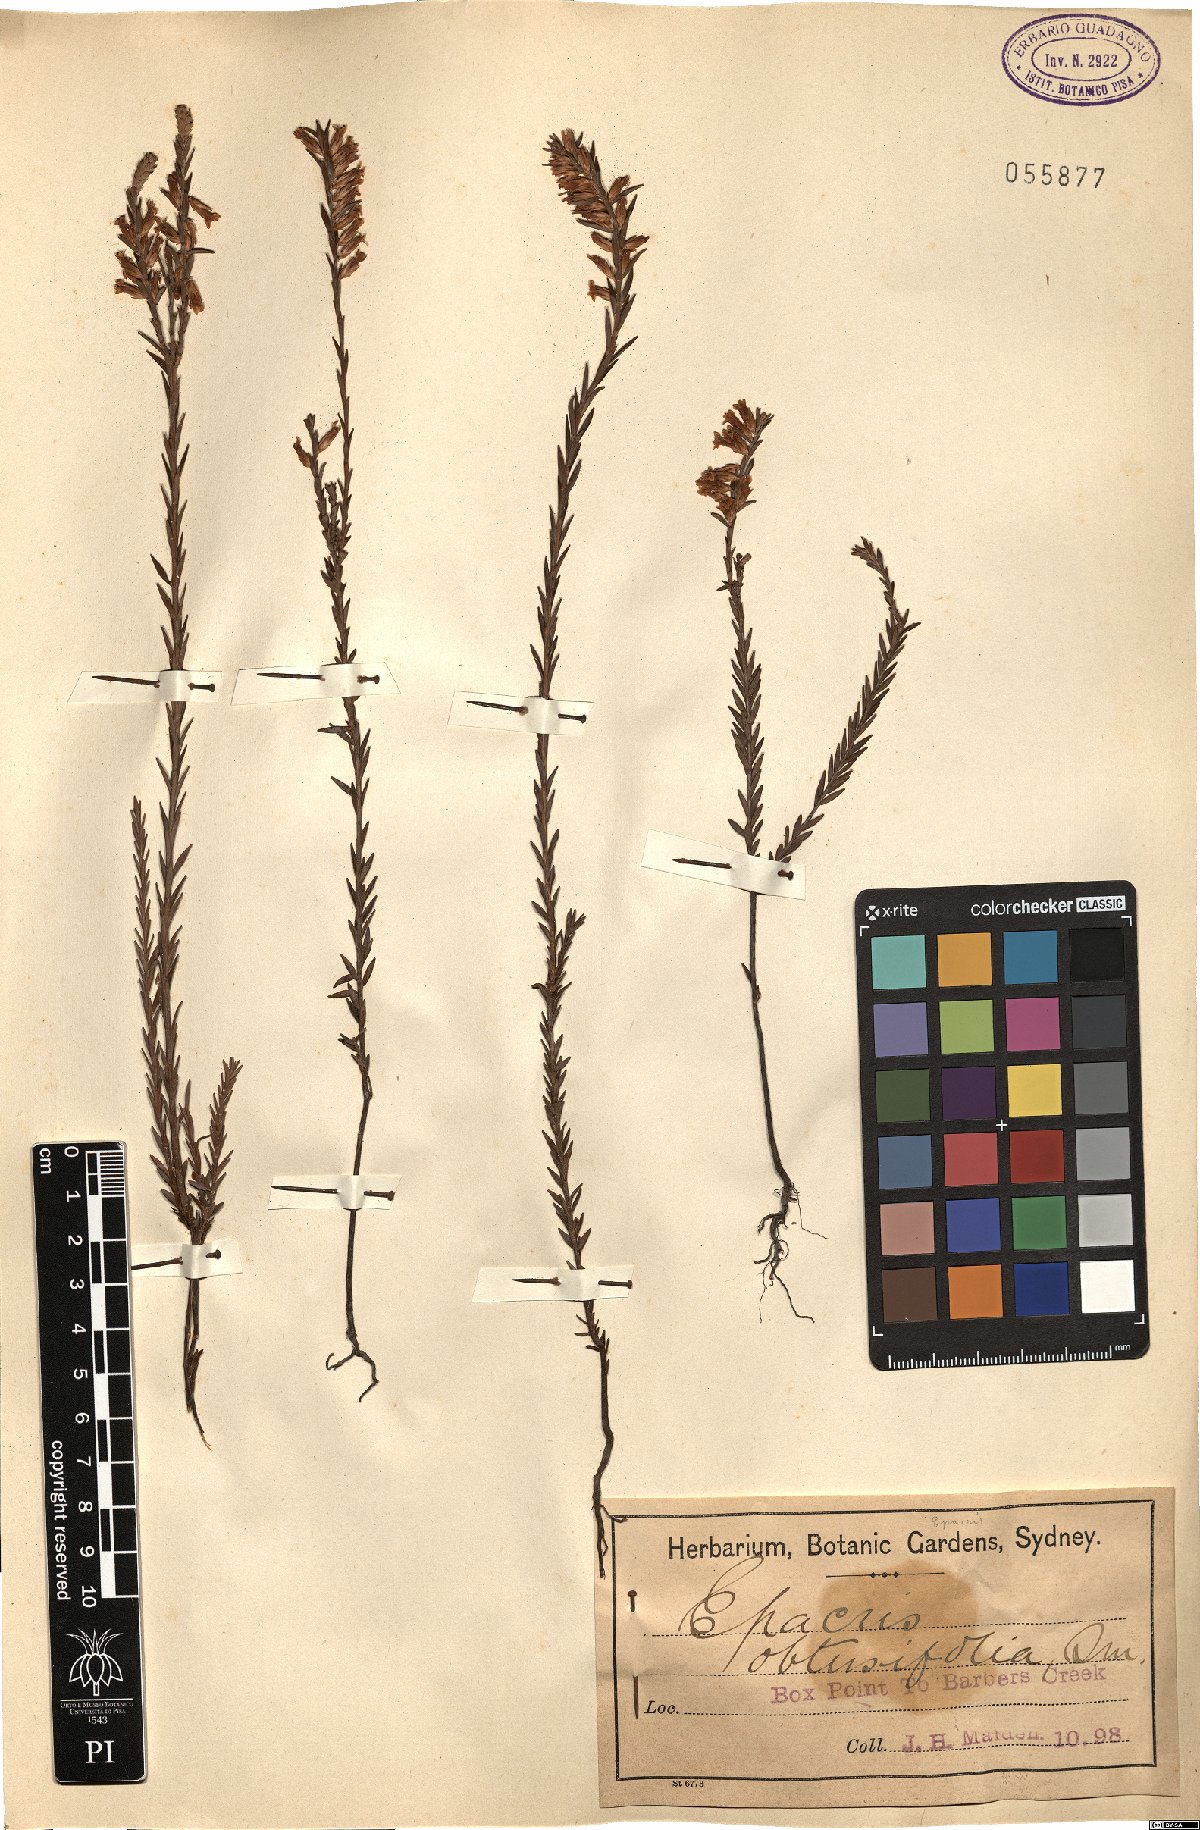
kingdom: Plantae
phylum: Tracheophyta
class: Magnoliopsida
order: Ericales
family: Ericaceae
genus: Epacris
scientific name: Epacris obtusifolia
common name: Blunt-leaf australian-heath
